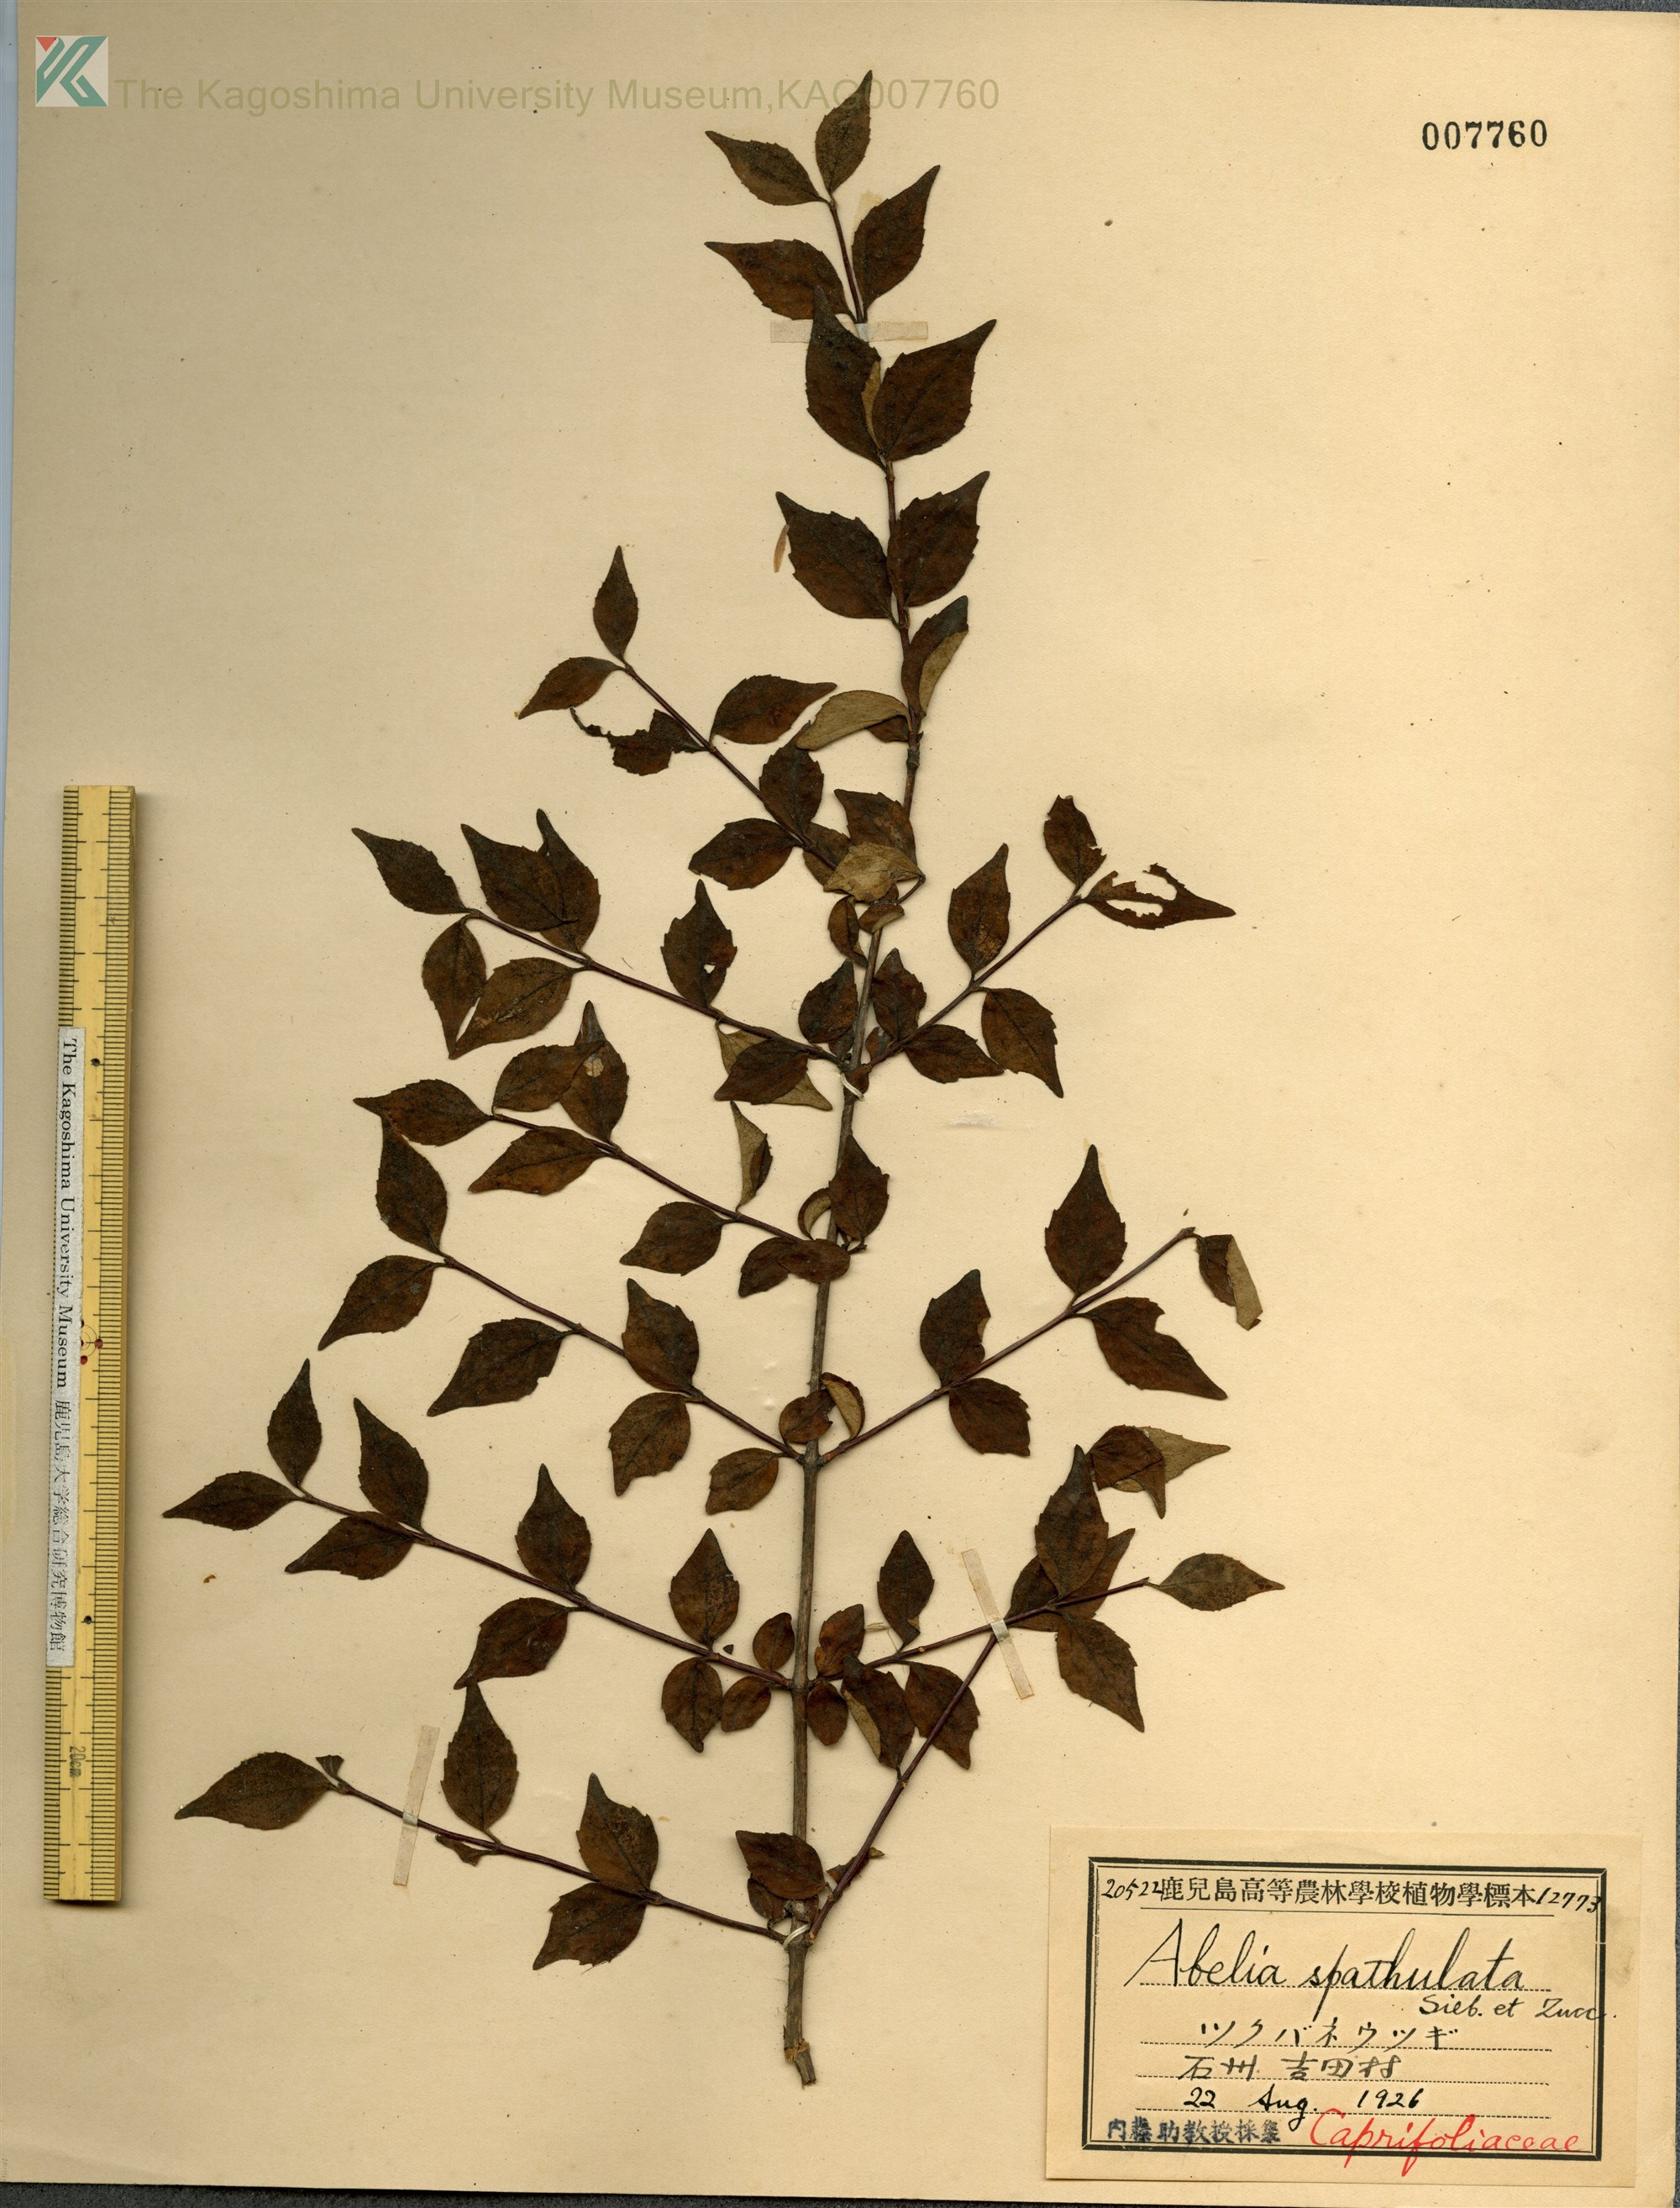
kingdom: Plantae
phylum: Tracheophyta
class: Magnoliopsida
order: Dipsacales
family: Caprifoliaceae
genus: Diabelia
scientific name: Diabelia spathulata
